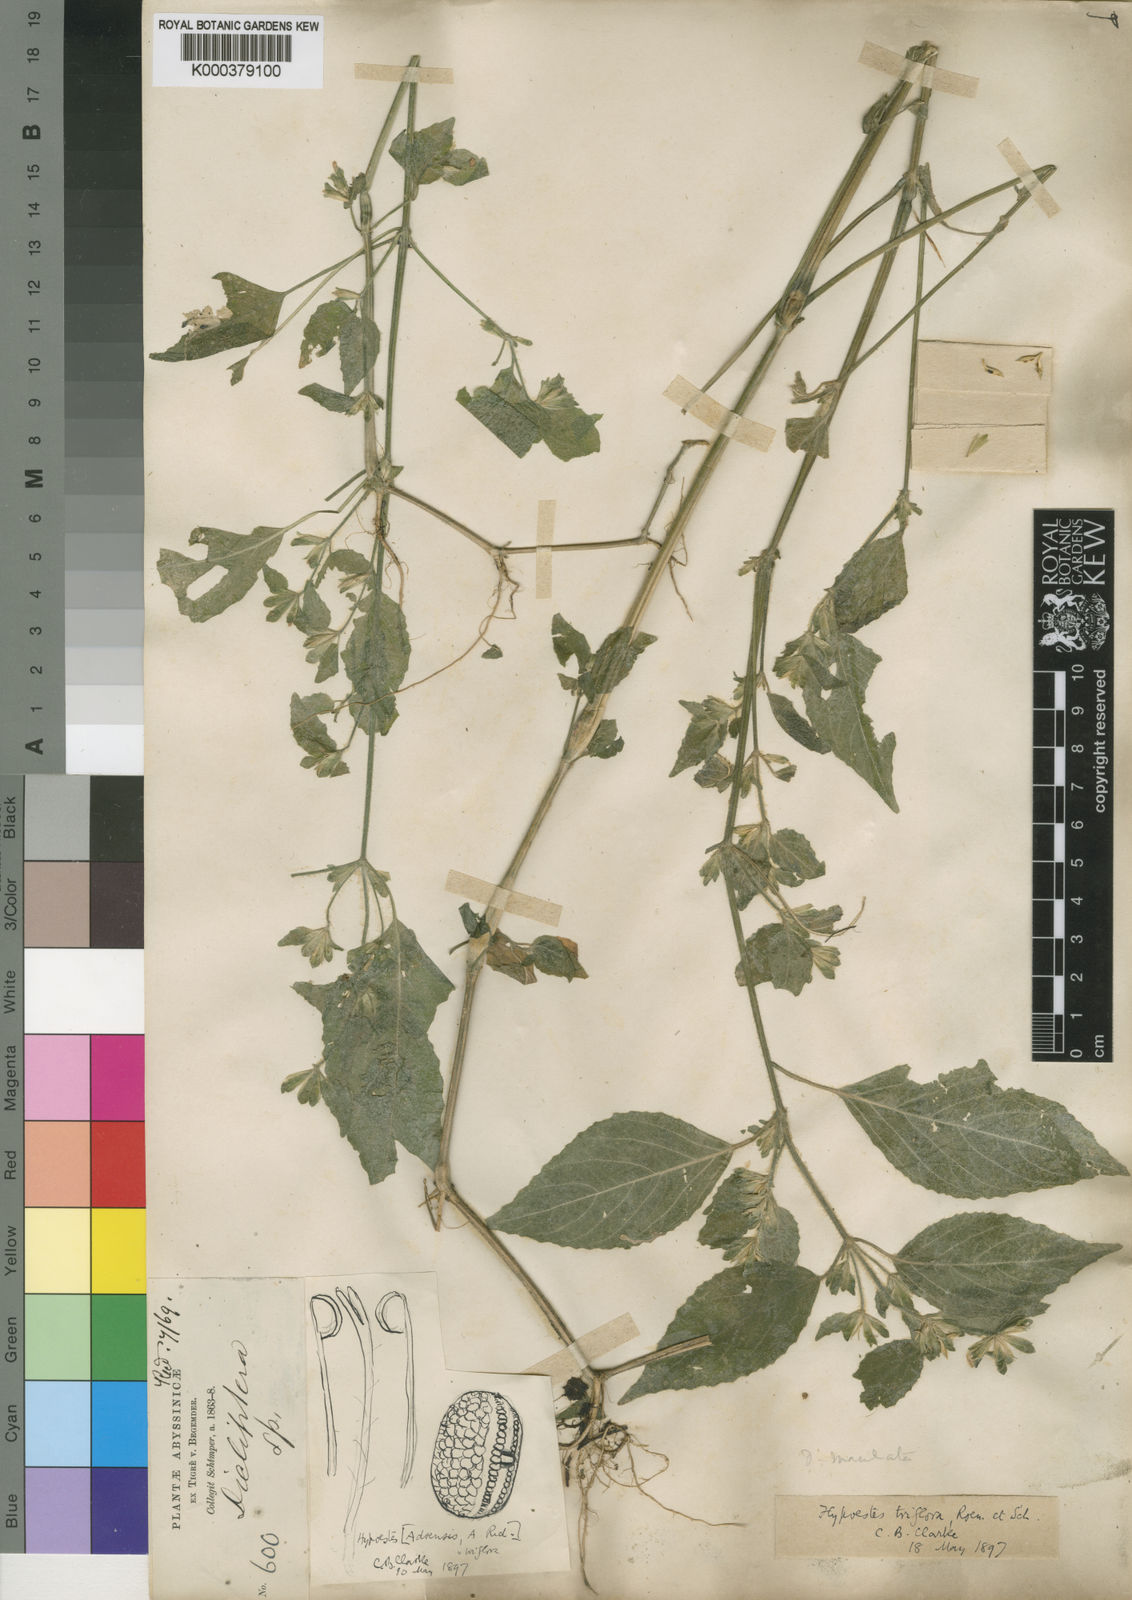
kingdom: Plantae
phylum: Tracheophyta
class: Magnoliopsida
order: Lamiales
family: Acanthaceae
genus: Hypoestes
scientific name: Hypoestes triflora
